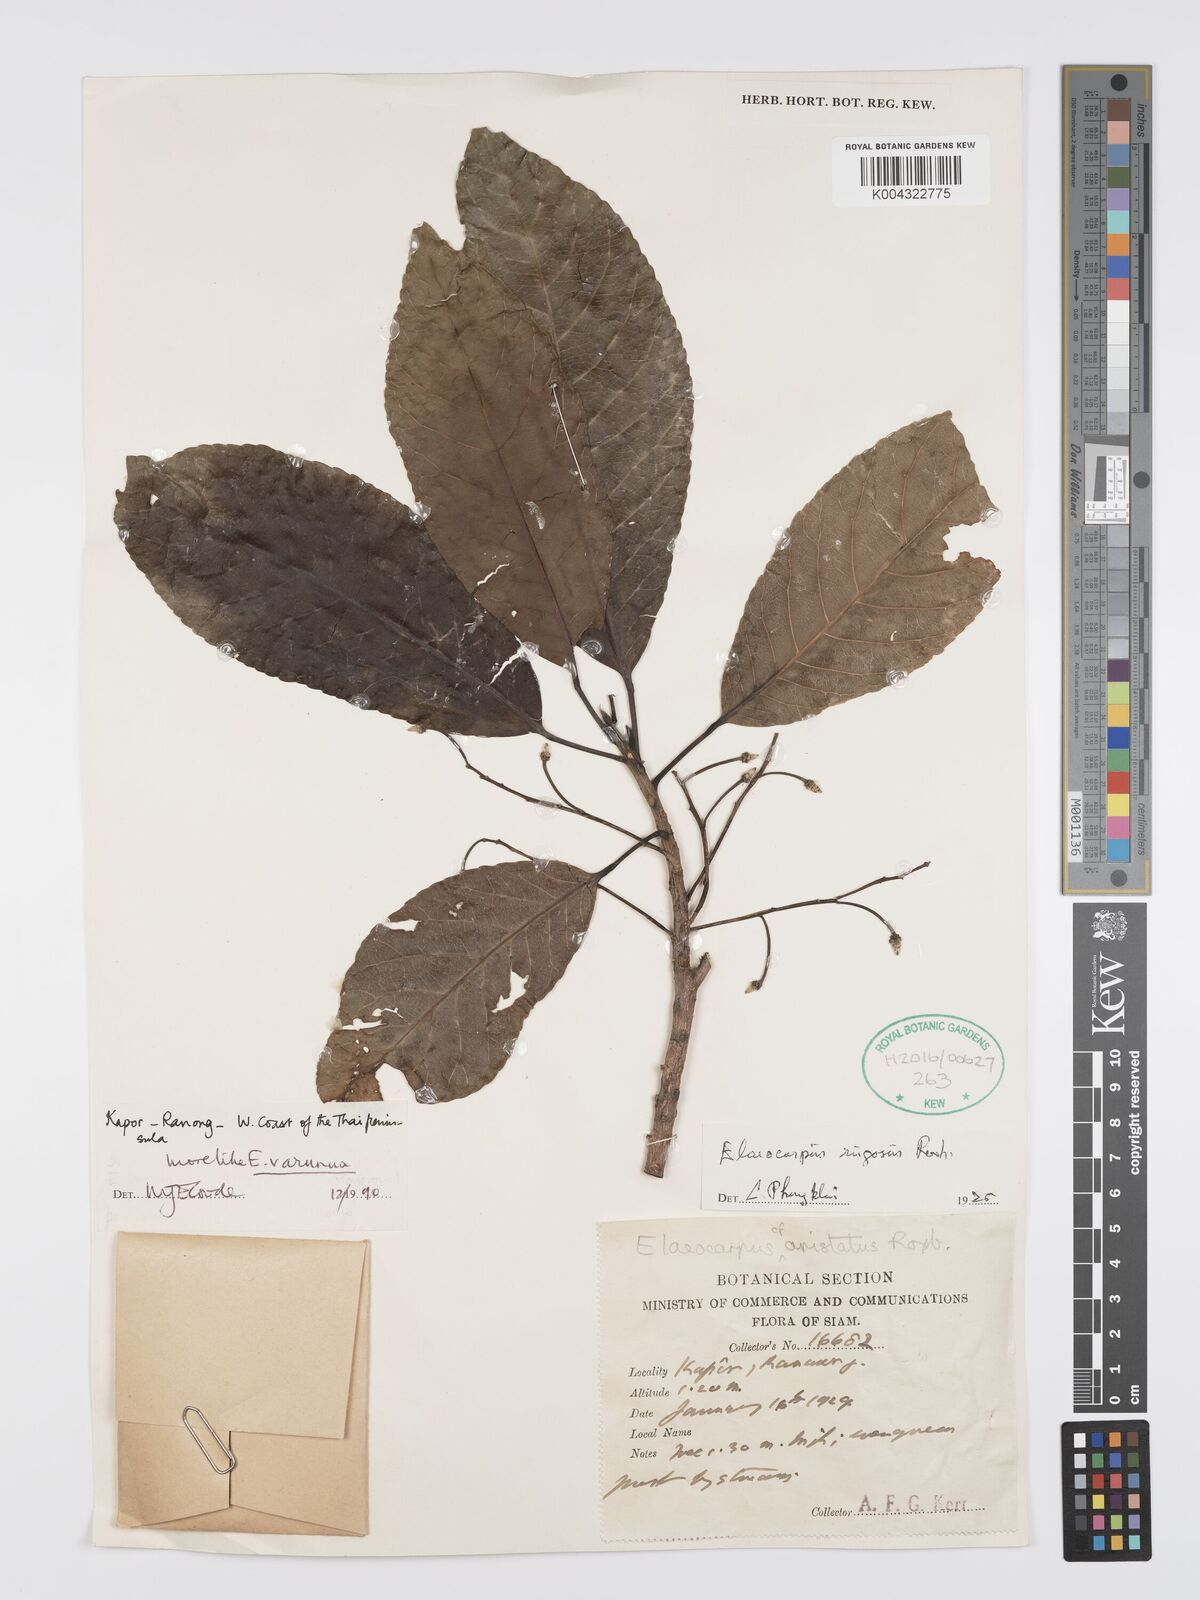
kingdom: Plantae
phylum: Tracheophyta
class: Magnoliopsida
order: Oxalidales
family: Elaeocarpaceae
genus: Elaeocarpus
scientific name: Elaeocarpus rugosus
